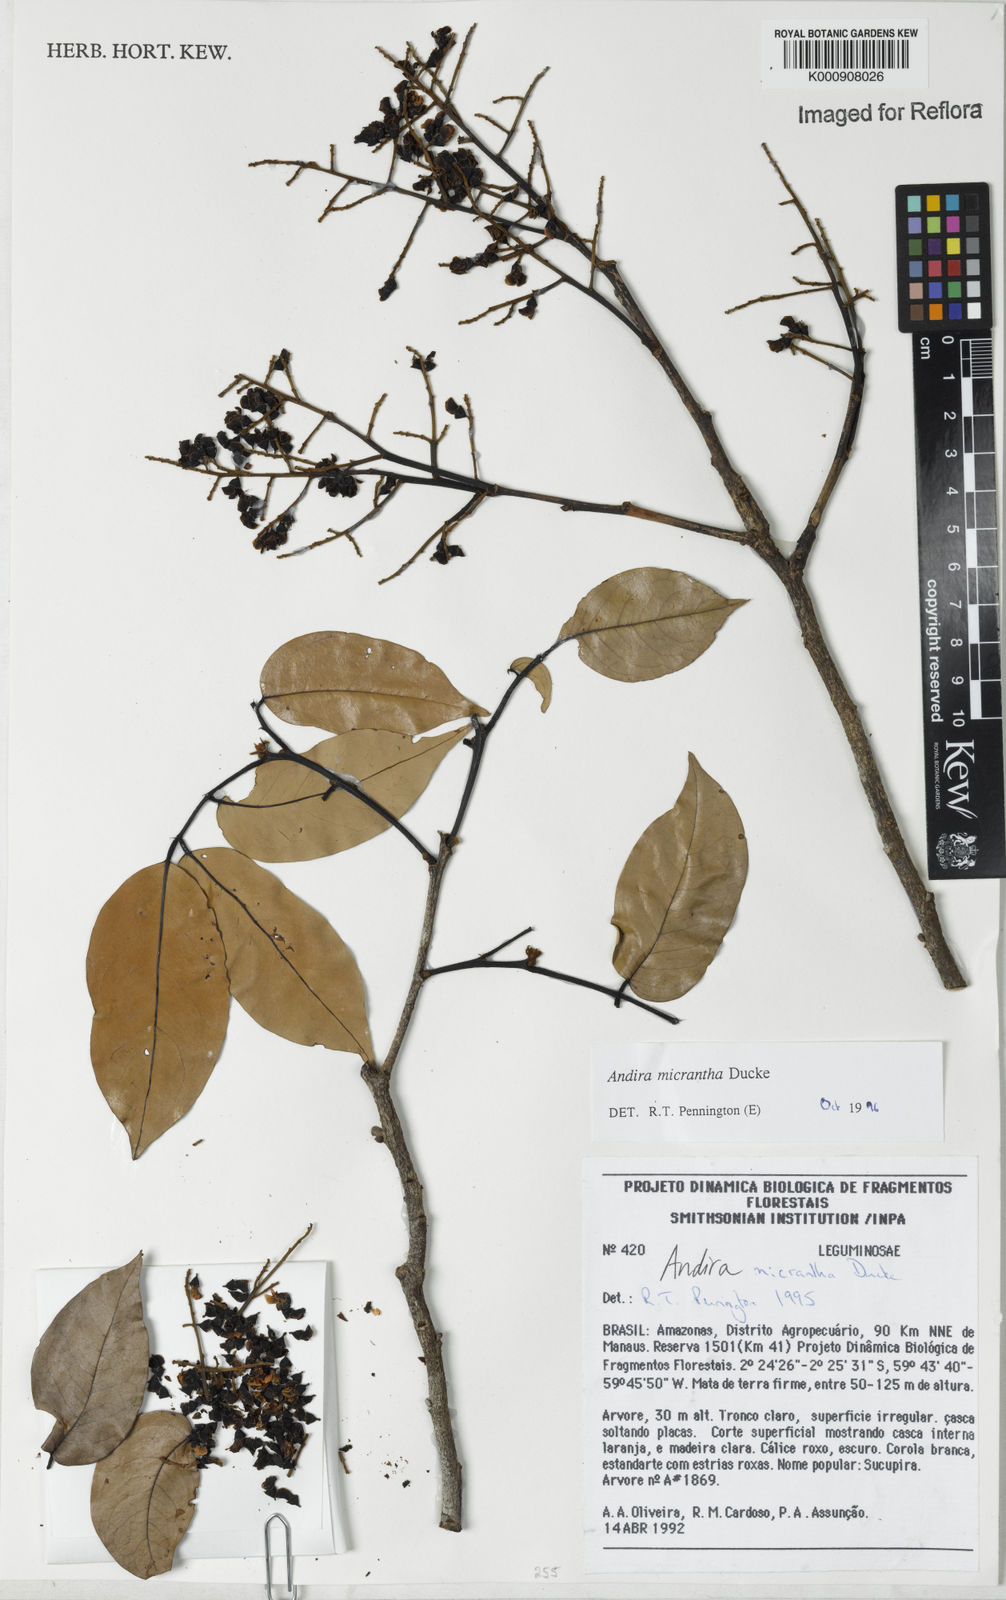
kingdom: Plantae
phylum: Tracheophyta
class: Magnoliopsida
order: Fabales
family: Fabaceae
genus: Andira
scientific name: Andira micrantha
